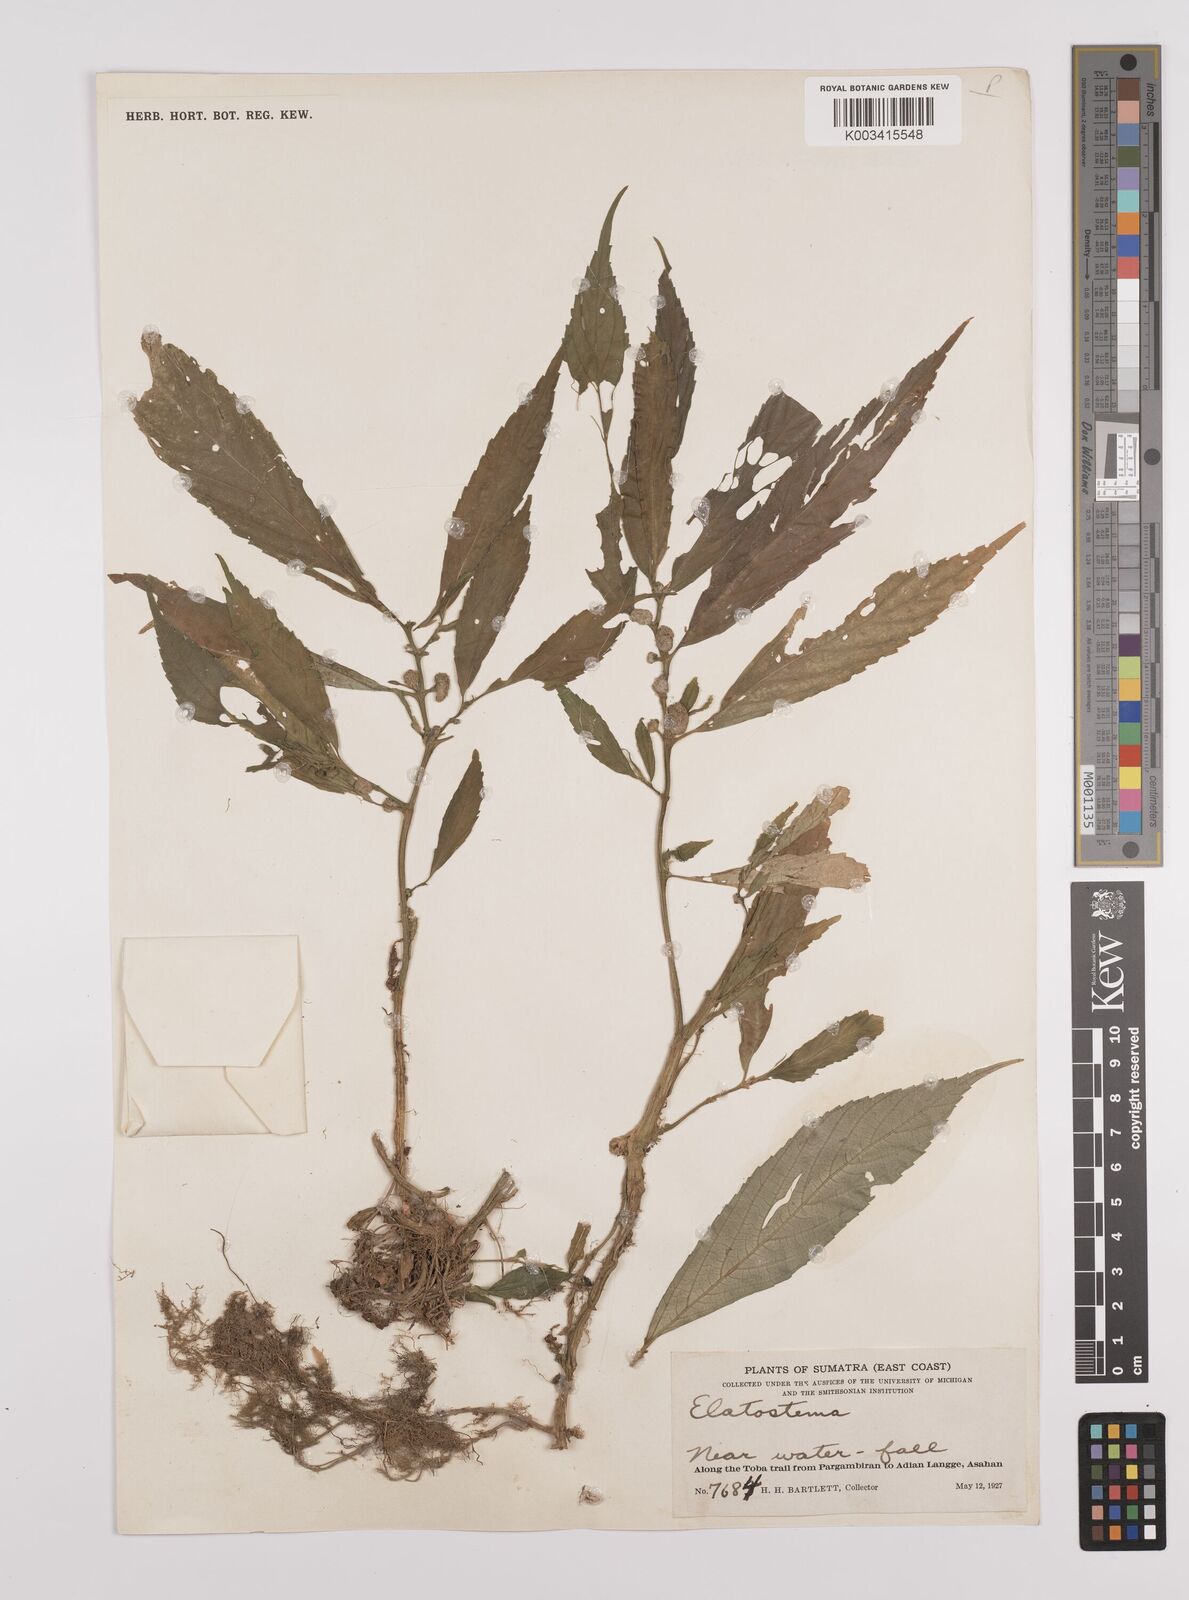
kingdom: Plantae
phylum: Tracheophyta
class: Magnoliopsida
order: Rosales
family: Urticaceae
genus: Elatostema
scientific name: Elatostema
